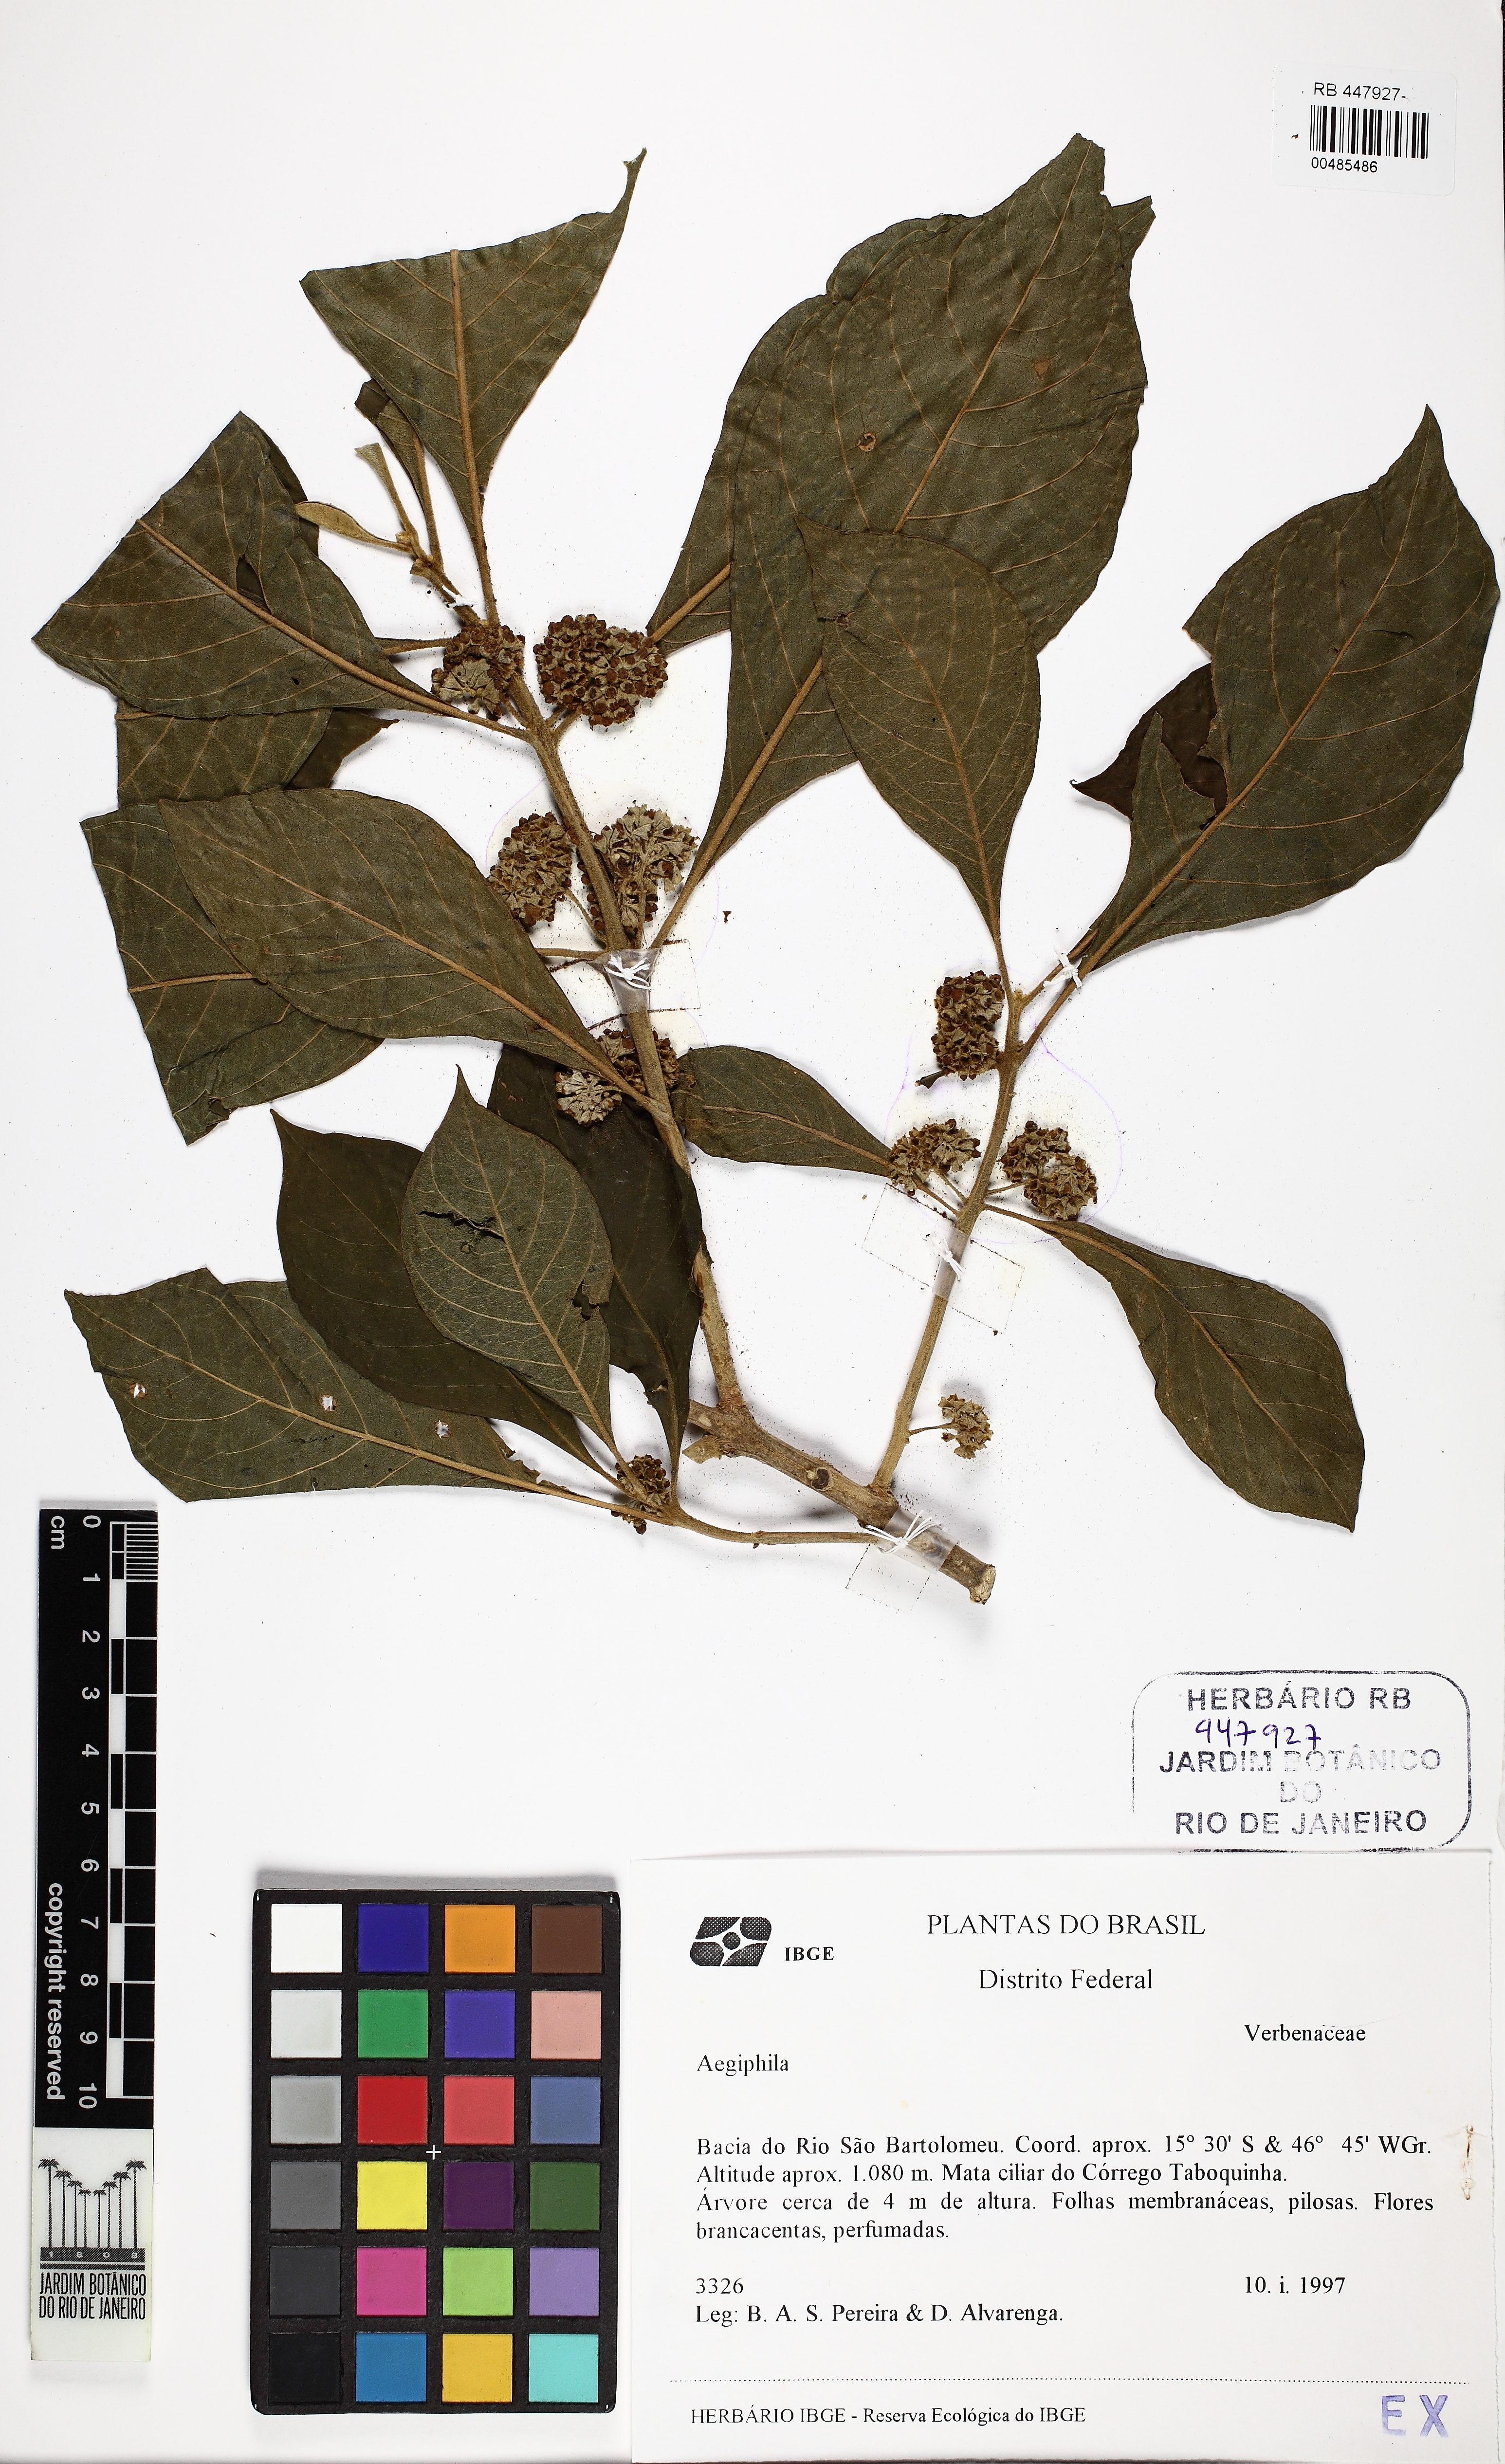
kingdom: Plantae
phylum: Tracheophyta
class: Magnoliopsida
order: Lamiales
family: Lamiaceae
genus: Aegiphila
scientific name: Aegiphila
